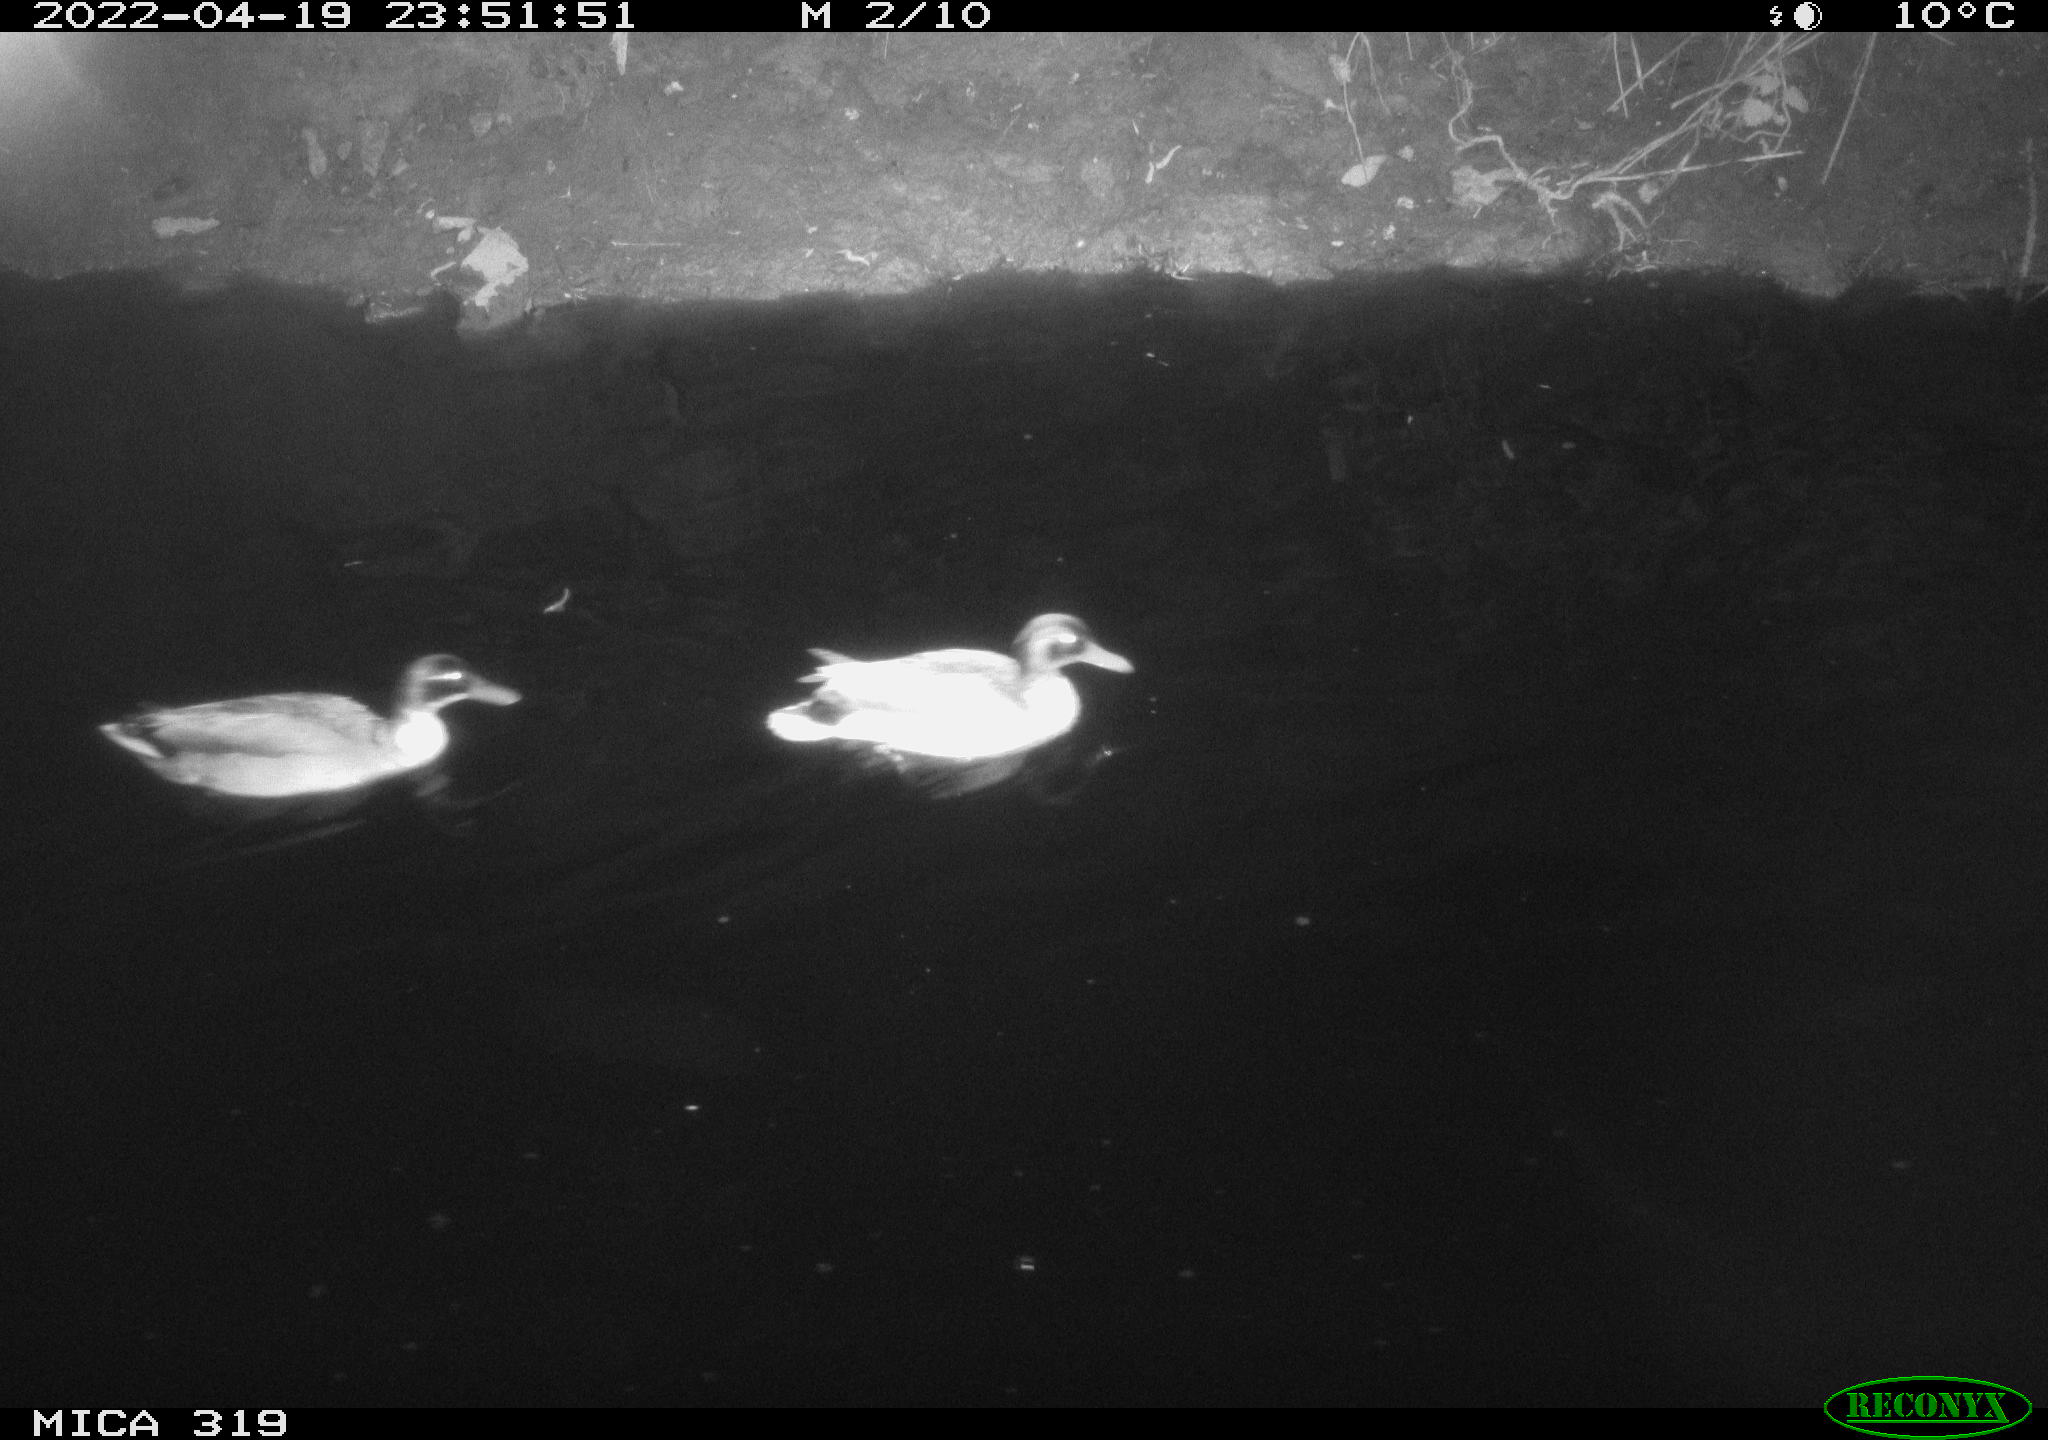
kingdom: Animalia
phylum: Chordata
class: Aves
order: Anseriformes
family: Anatidae
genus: Anas
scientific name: Anas platyrhynchos
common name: Mallard
